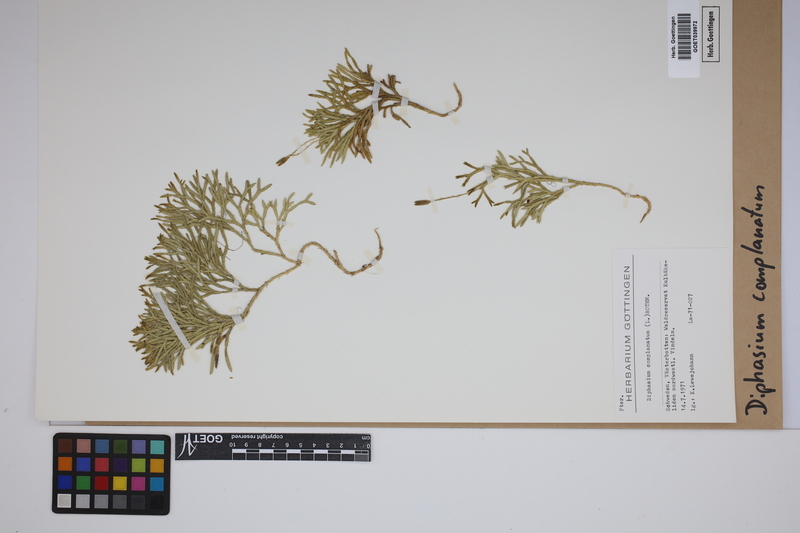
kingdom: Plantae
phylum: Tracheophyta
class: Lycopodiopsida
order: Lycopodiales
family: Lycopodiaceae
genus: Diphasiastrum
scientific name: Diphasiastrum complanatum
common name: Northern running-pine
